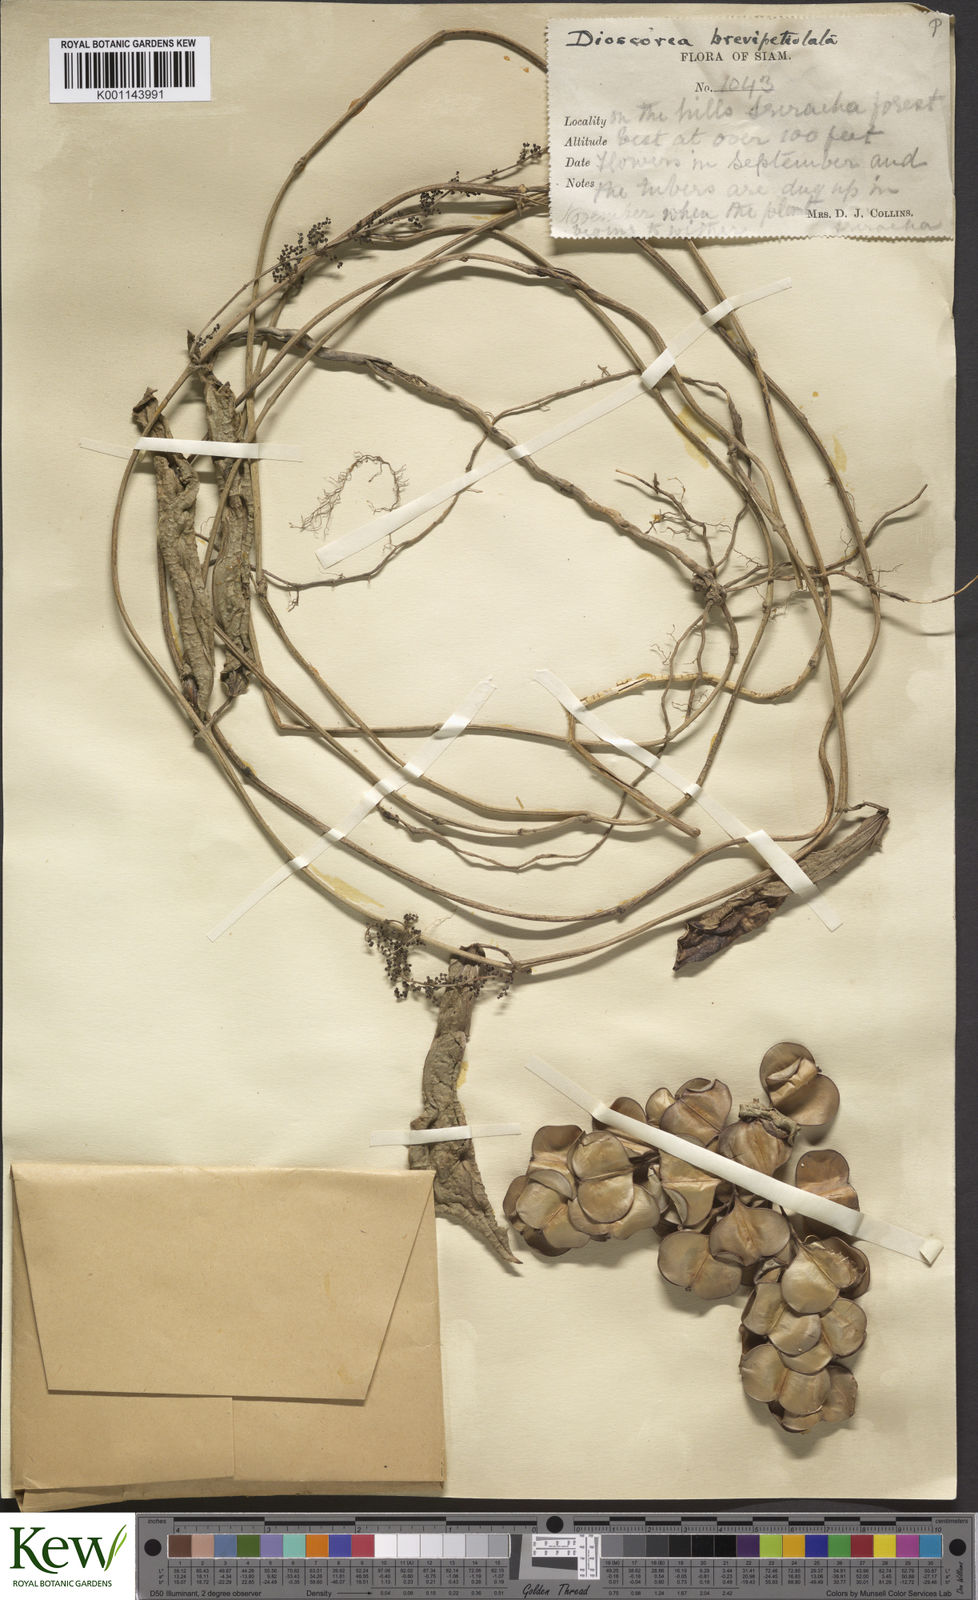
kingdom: Plantae
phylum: Tracheophyta
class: Liliopsida
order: Dioscoreales
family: Dioscoreaceae
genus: Dioscorea
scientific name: Dioscorea brevipetiolata
